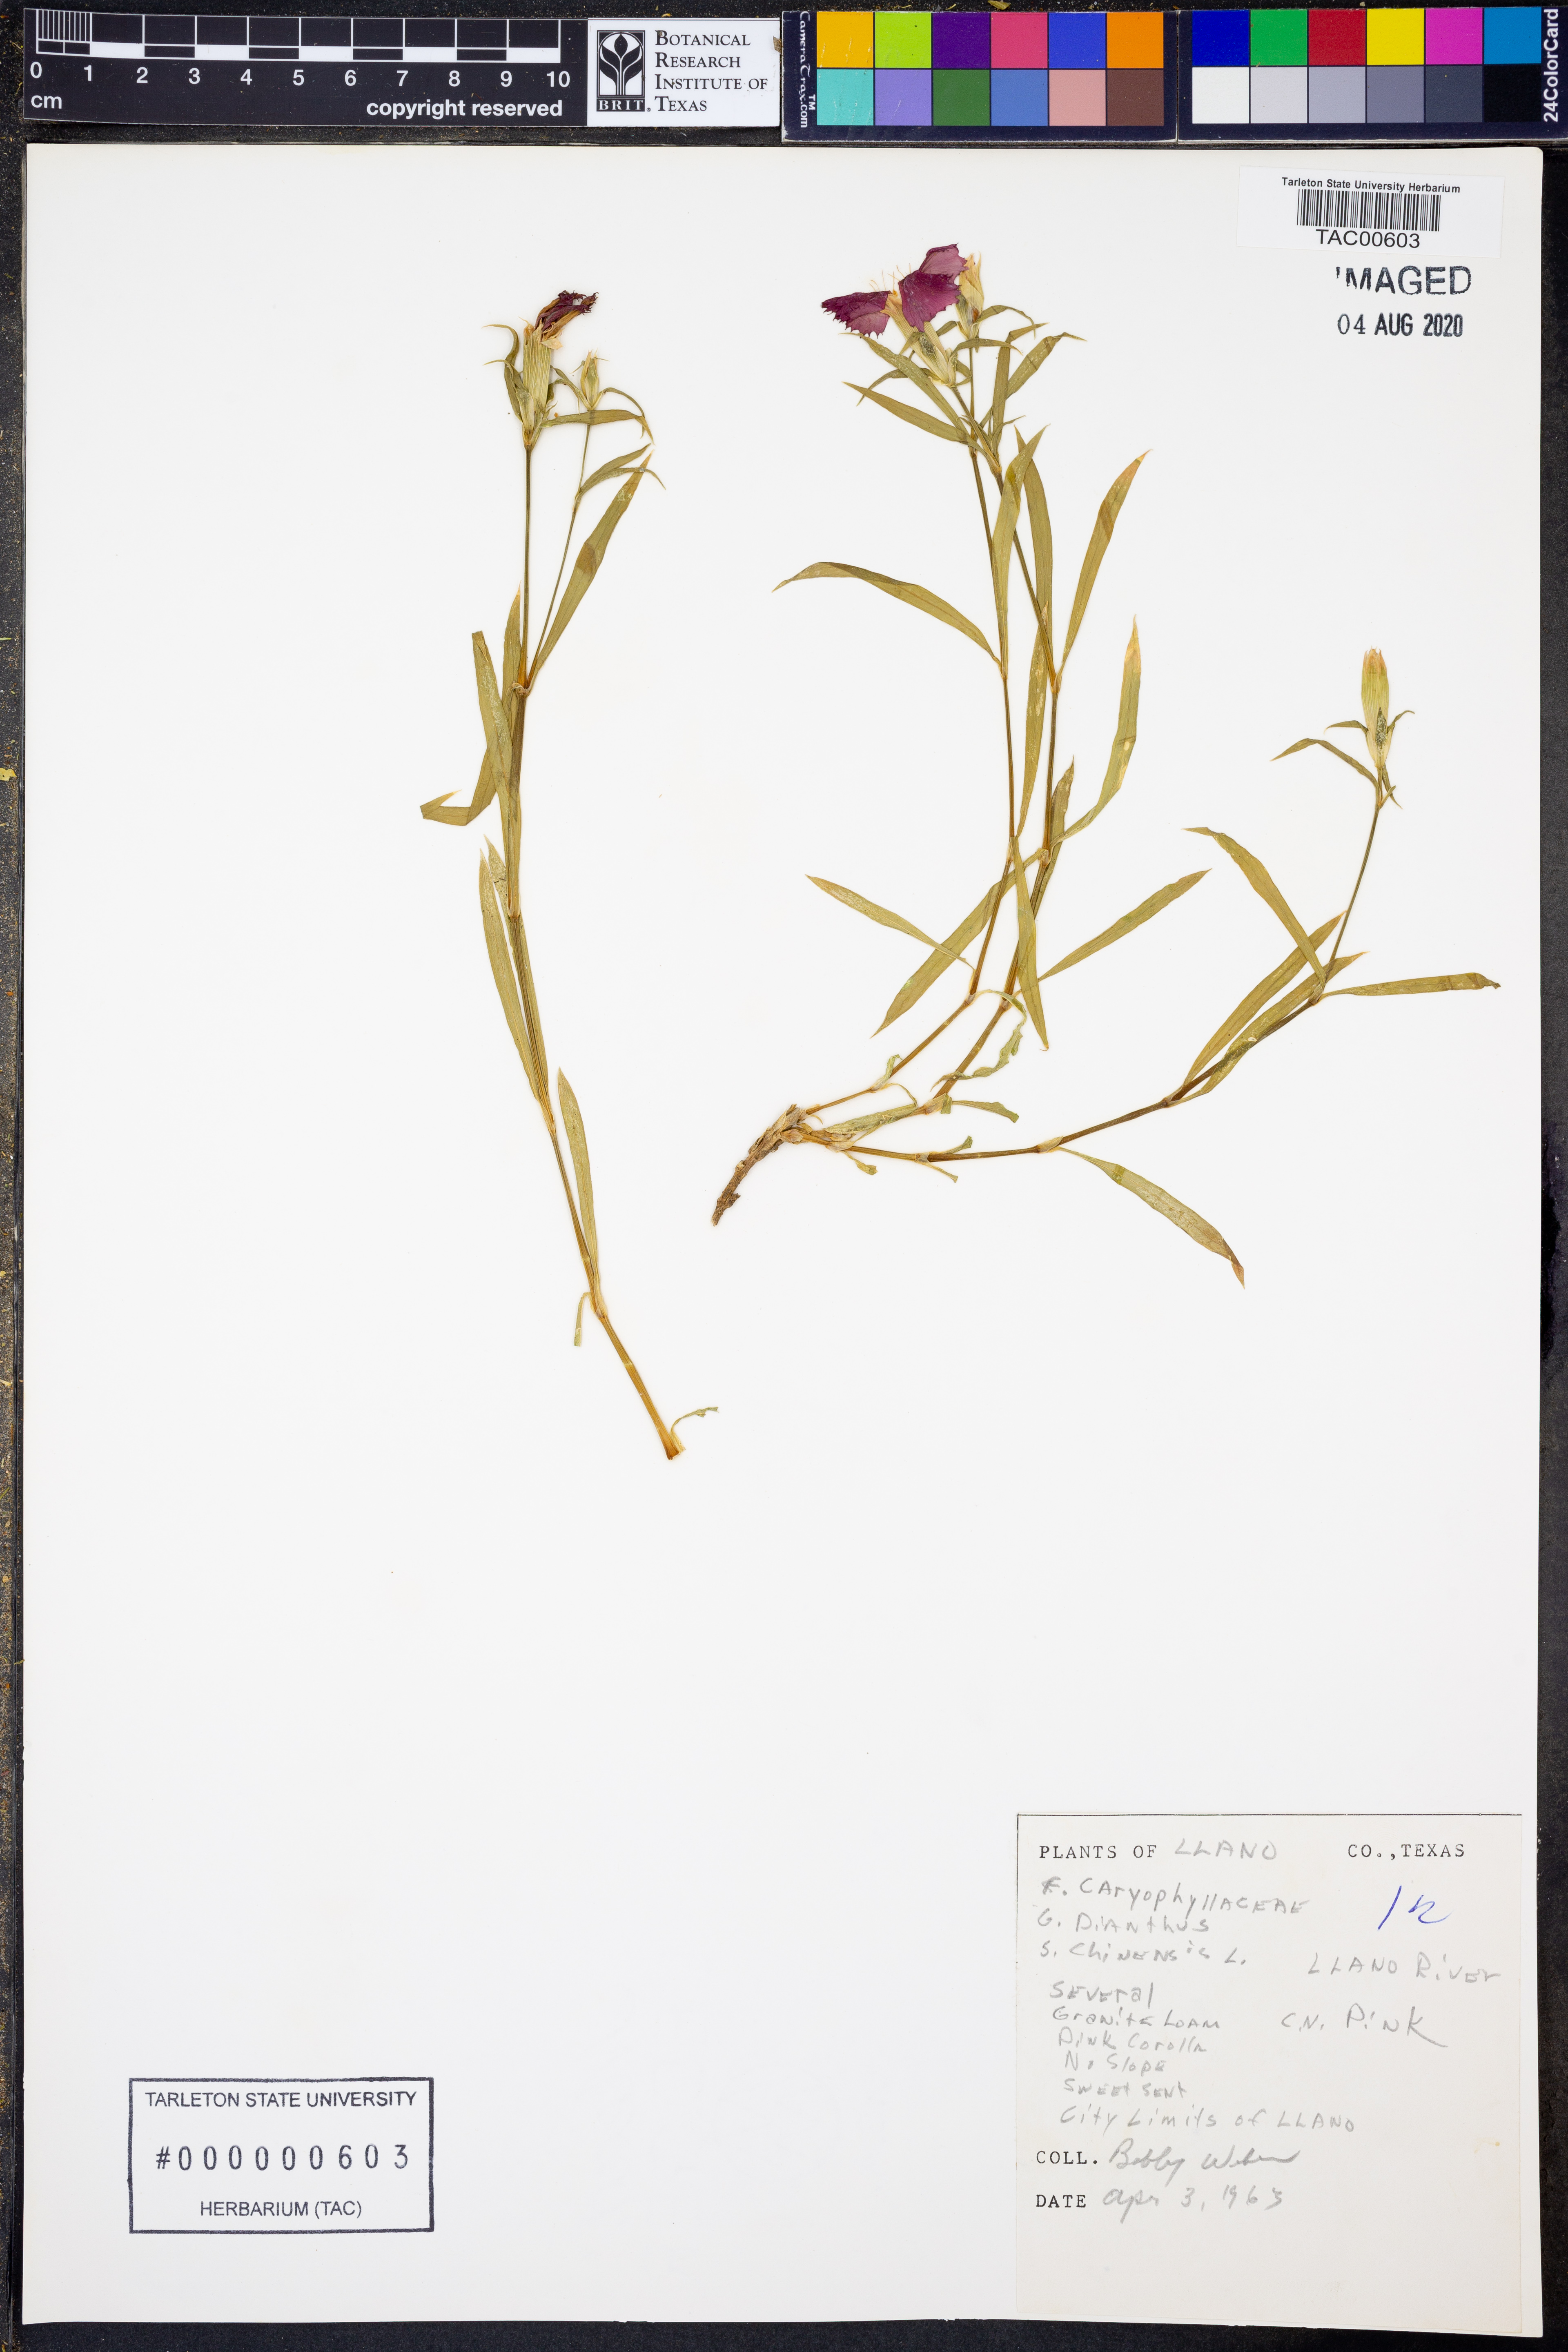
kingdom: Plantae
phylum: Tracheophyta
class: Magnoliopsida
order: Caryophyllales
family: Caryophyllaceae
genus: Dianthus
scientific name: Dianthus chinensis
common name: Rainbow pink
